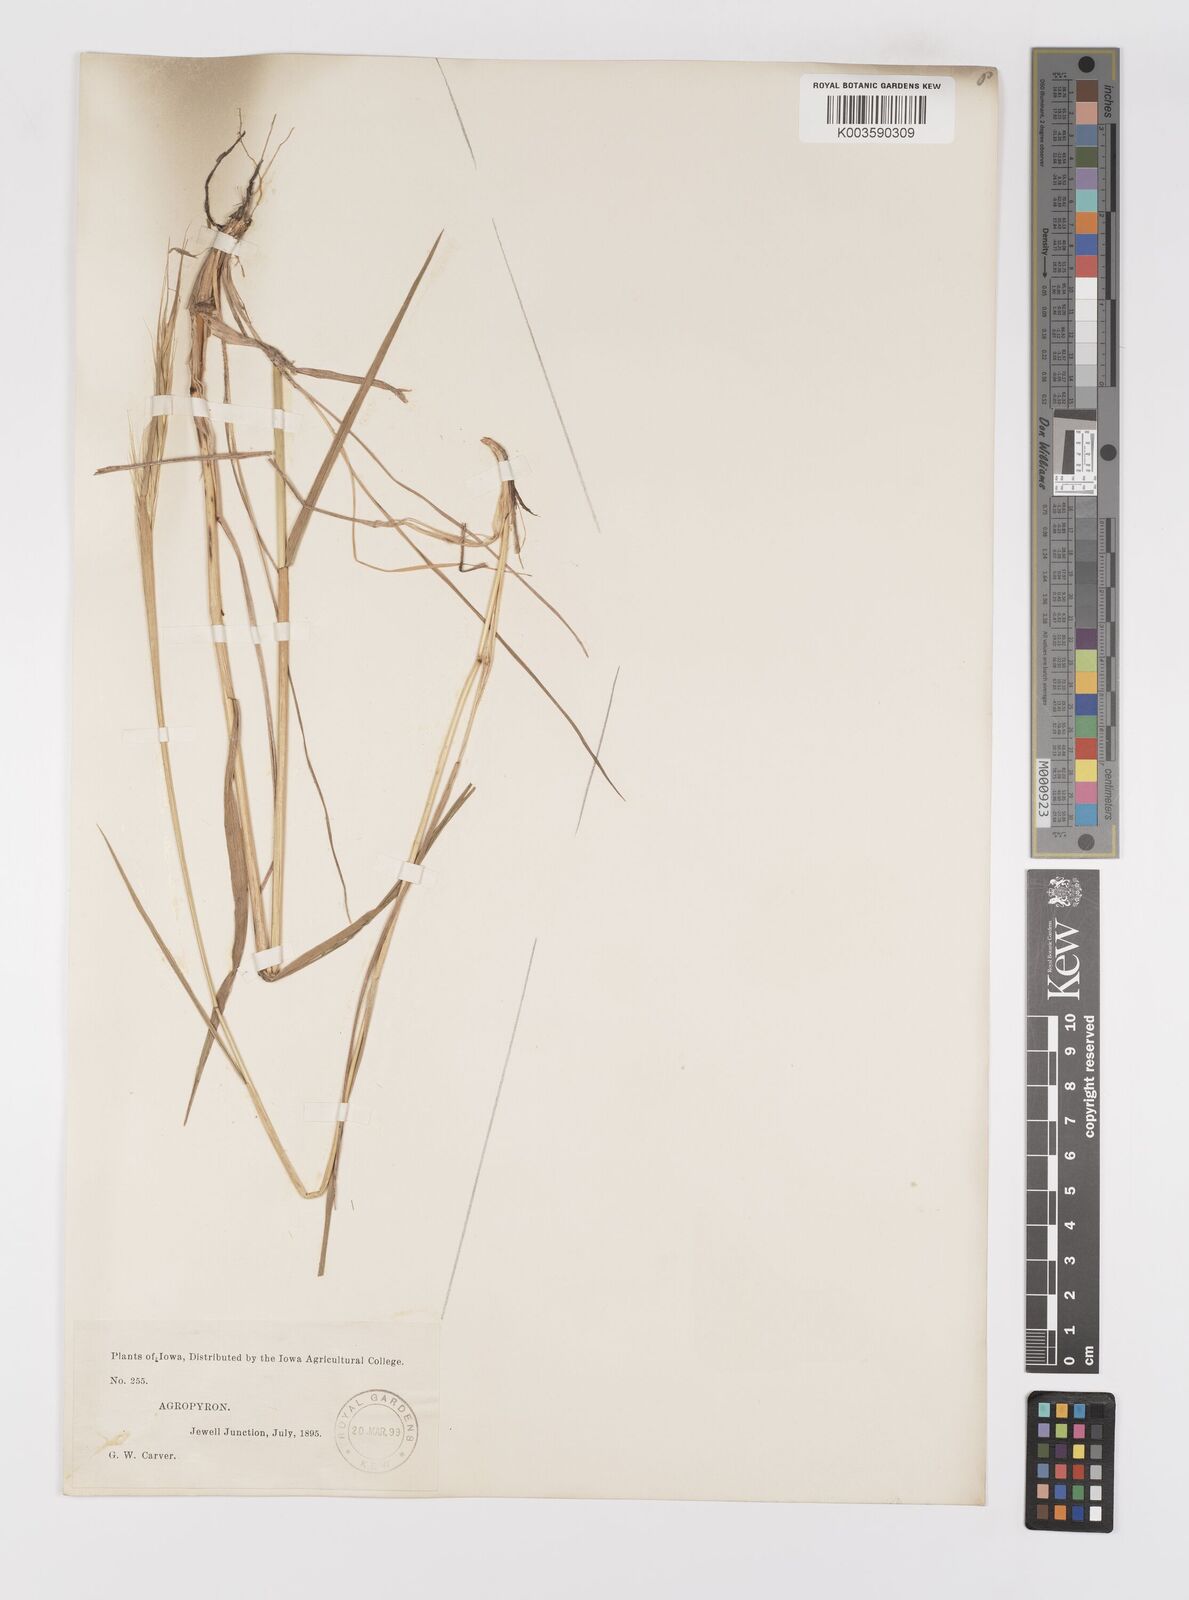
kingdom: Plantae
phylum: Tracheophyta
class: Liliopsida
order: Poales
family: Poaceae
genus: Elymus
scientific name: Elymus
